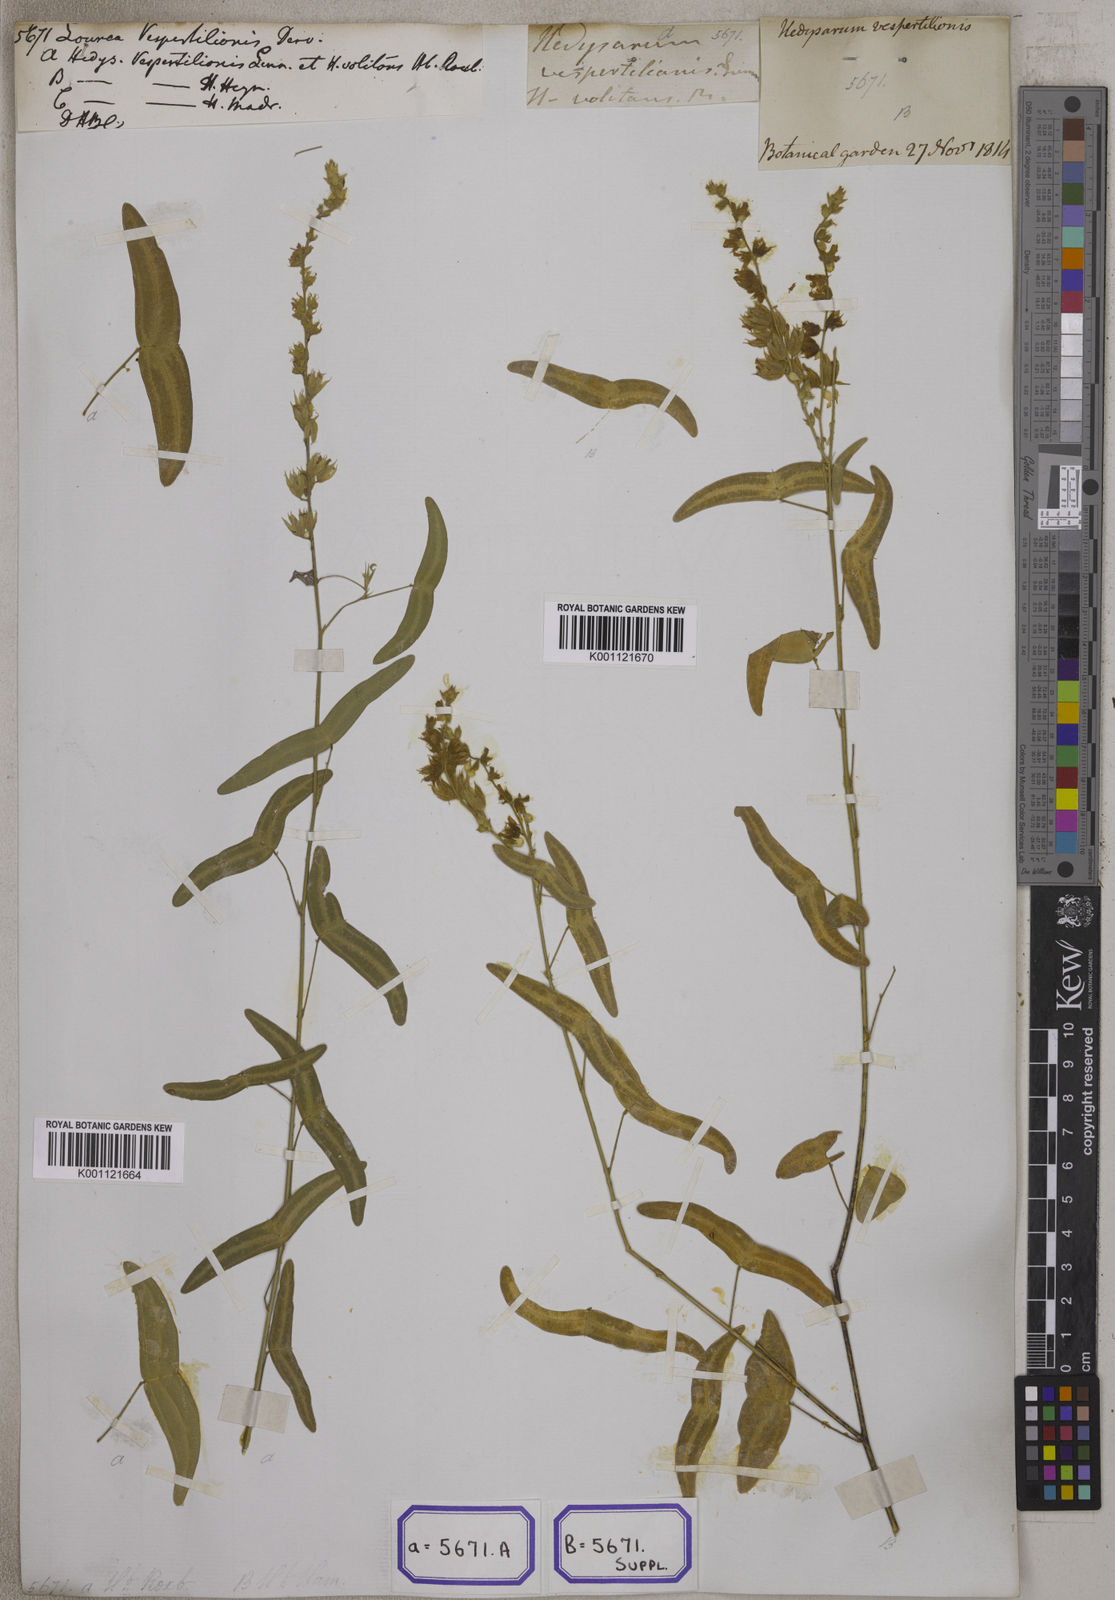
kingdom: Plantae
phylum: Tracheophyta
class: Magnoliopsida
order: Fabales
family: Fabaceae
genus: Christia
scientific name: Christia vespertilionis
